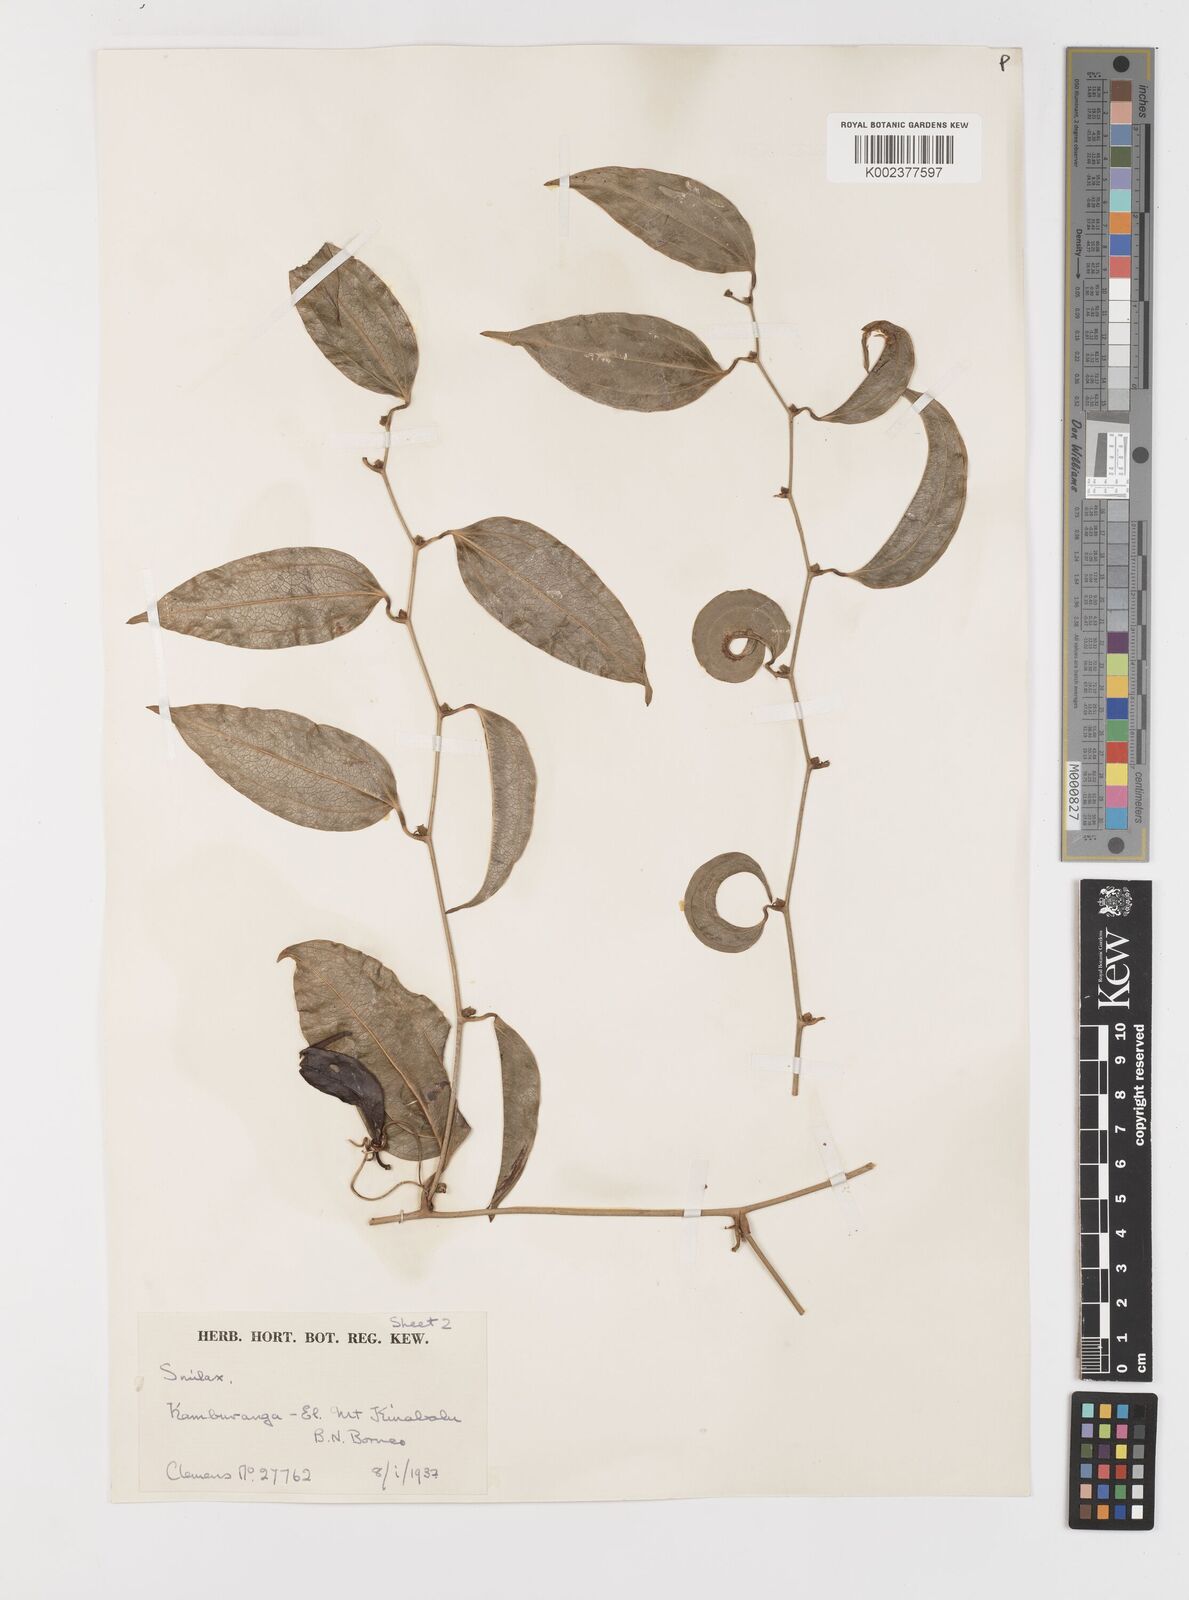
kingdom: Plantae
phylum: Tracheophyta
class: Liliopsida
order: Liliales
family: Smilacaceae
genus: Smilax
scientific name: Smilax lanceifolia
